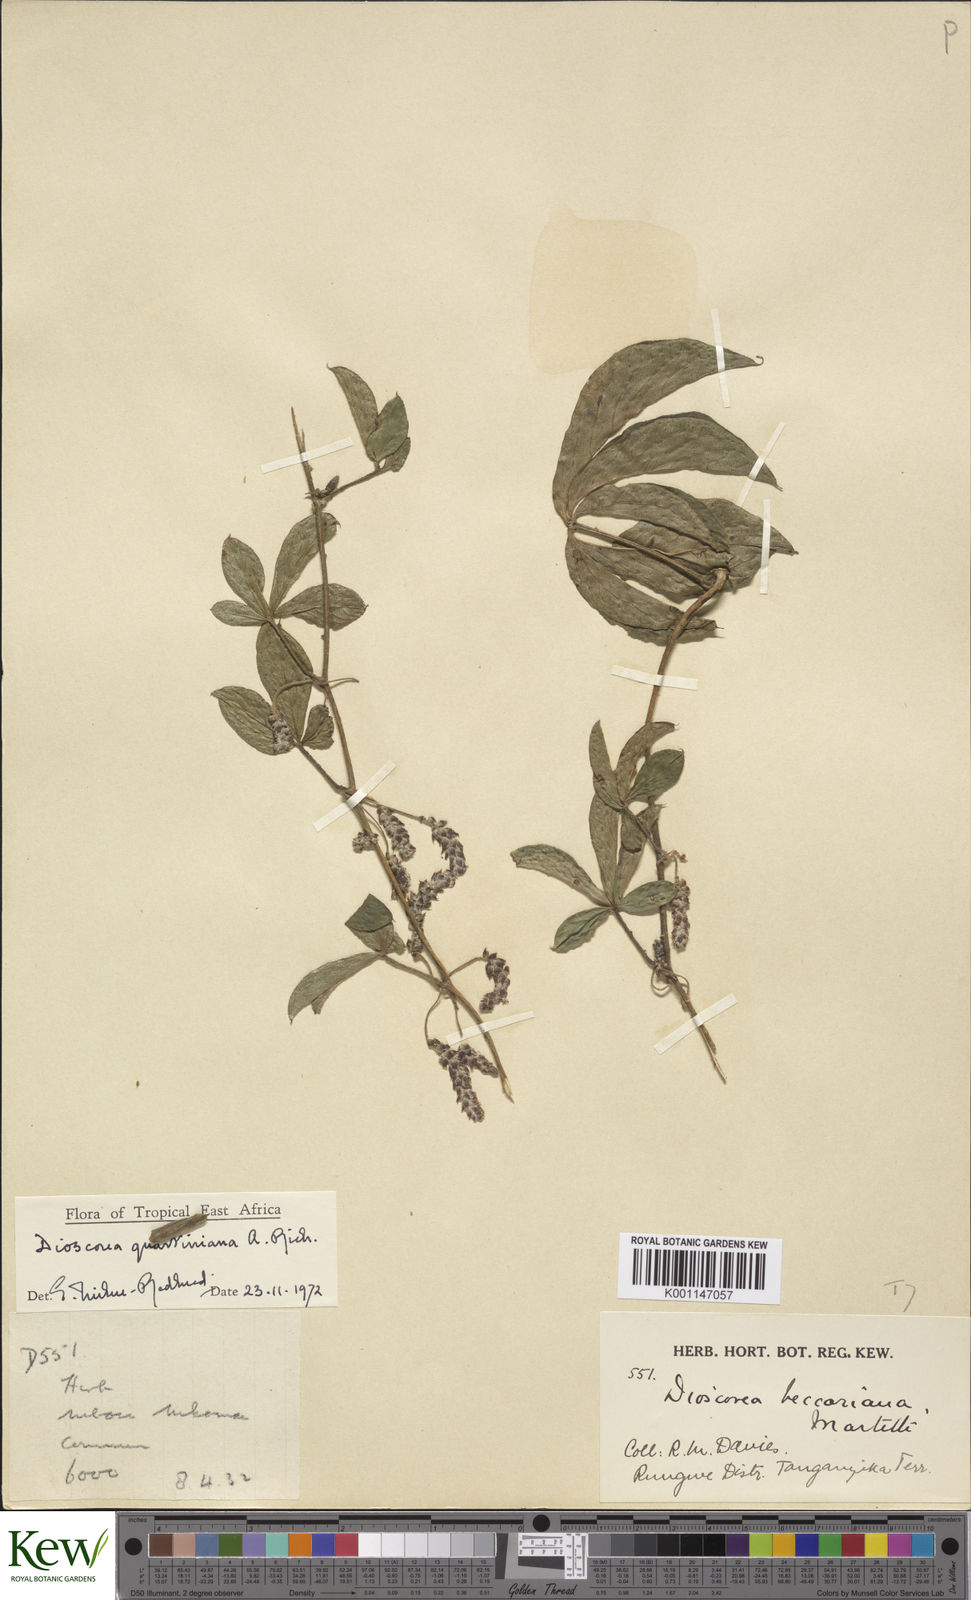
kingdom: Plantae
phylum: Tracheophyta
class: Liliopsida
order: Dioscoreales
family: Dioscoreaceae
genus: Dioscorea
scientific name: Dioscorea quartiniana
